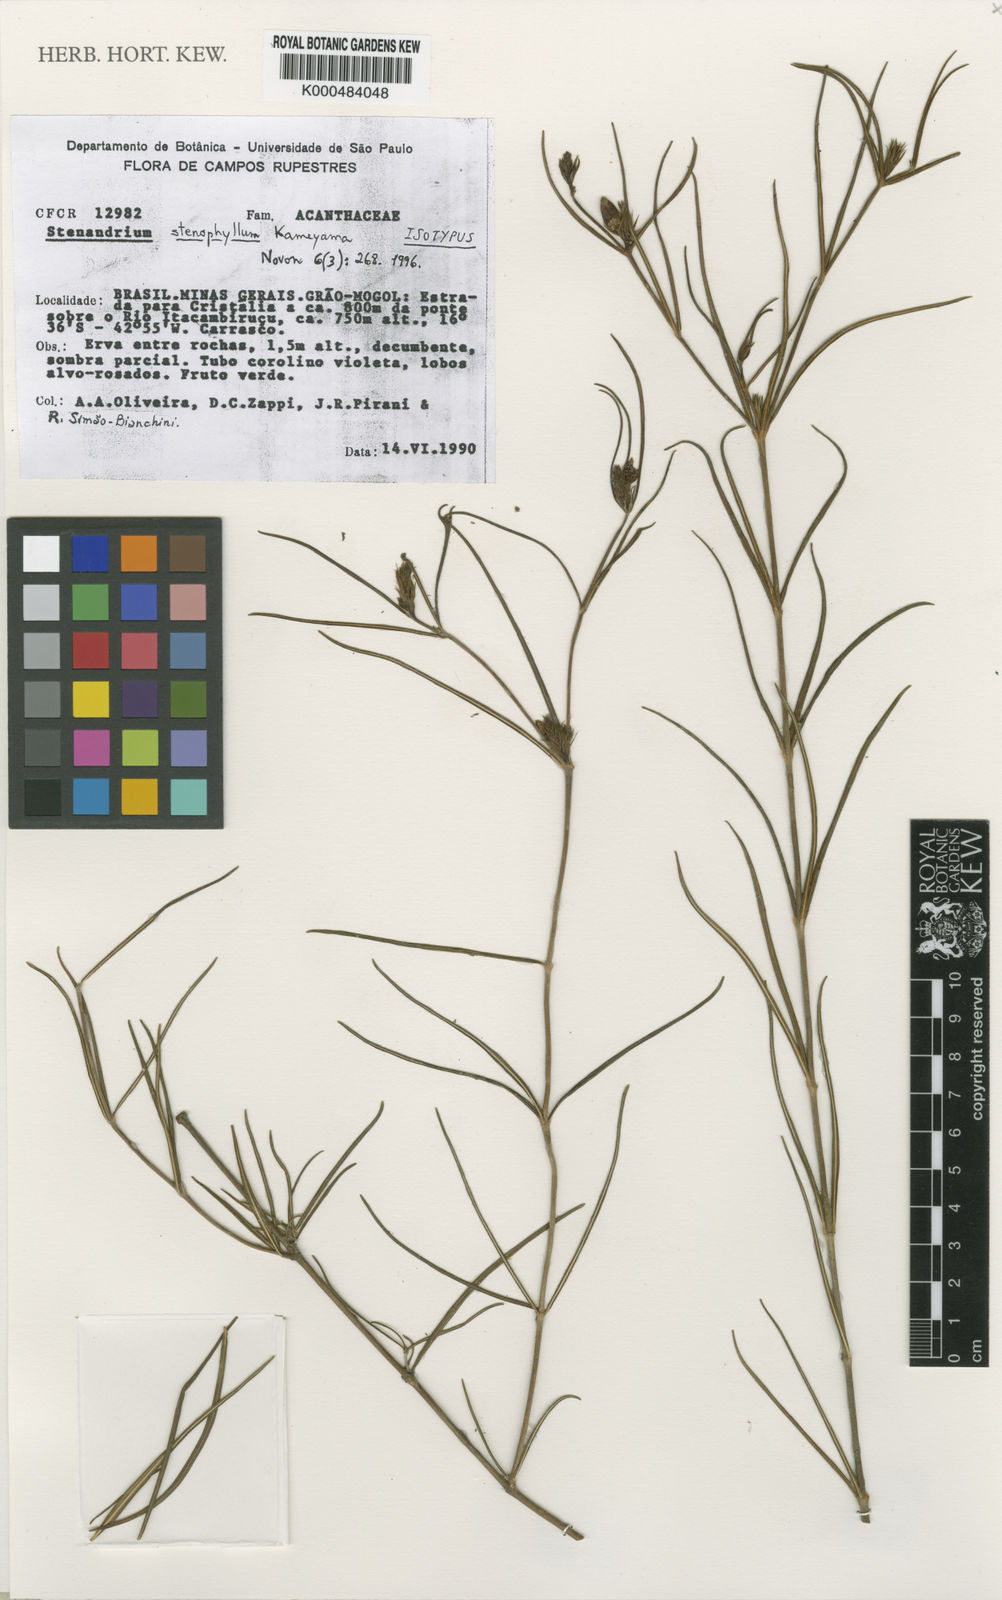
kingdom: Plantae
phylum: Tracheophyta
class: Magnoliopsida
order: Lamiales
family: Acanthaceae
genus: Stenandrium
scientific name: Stenandrium stenophyllum
